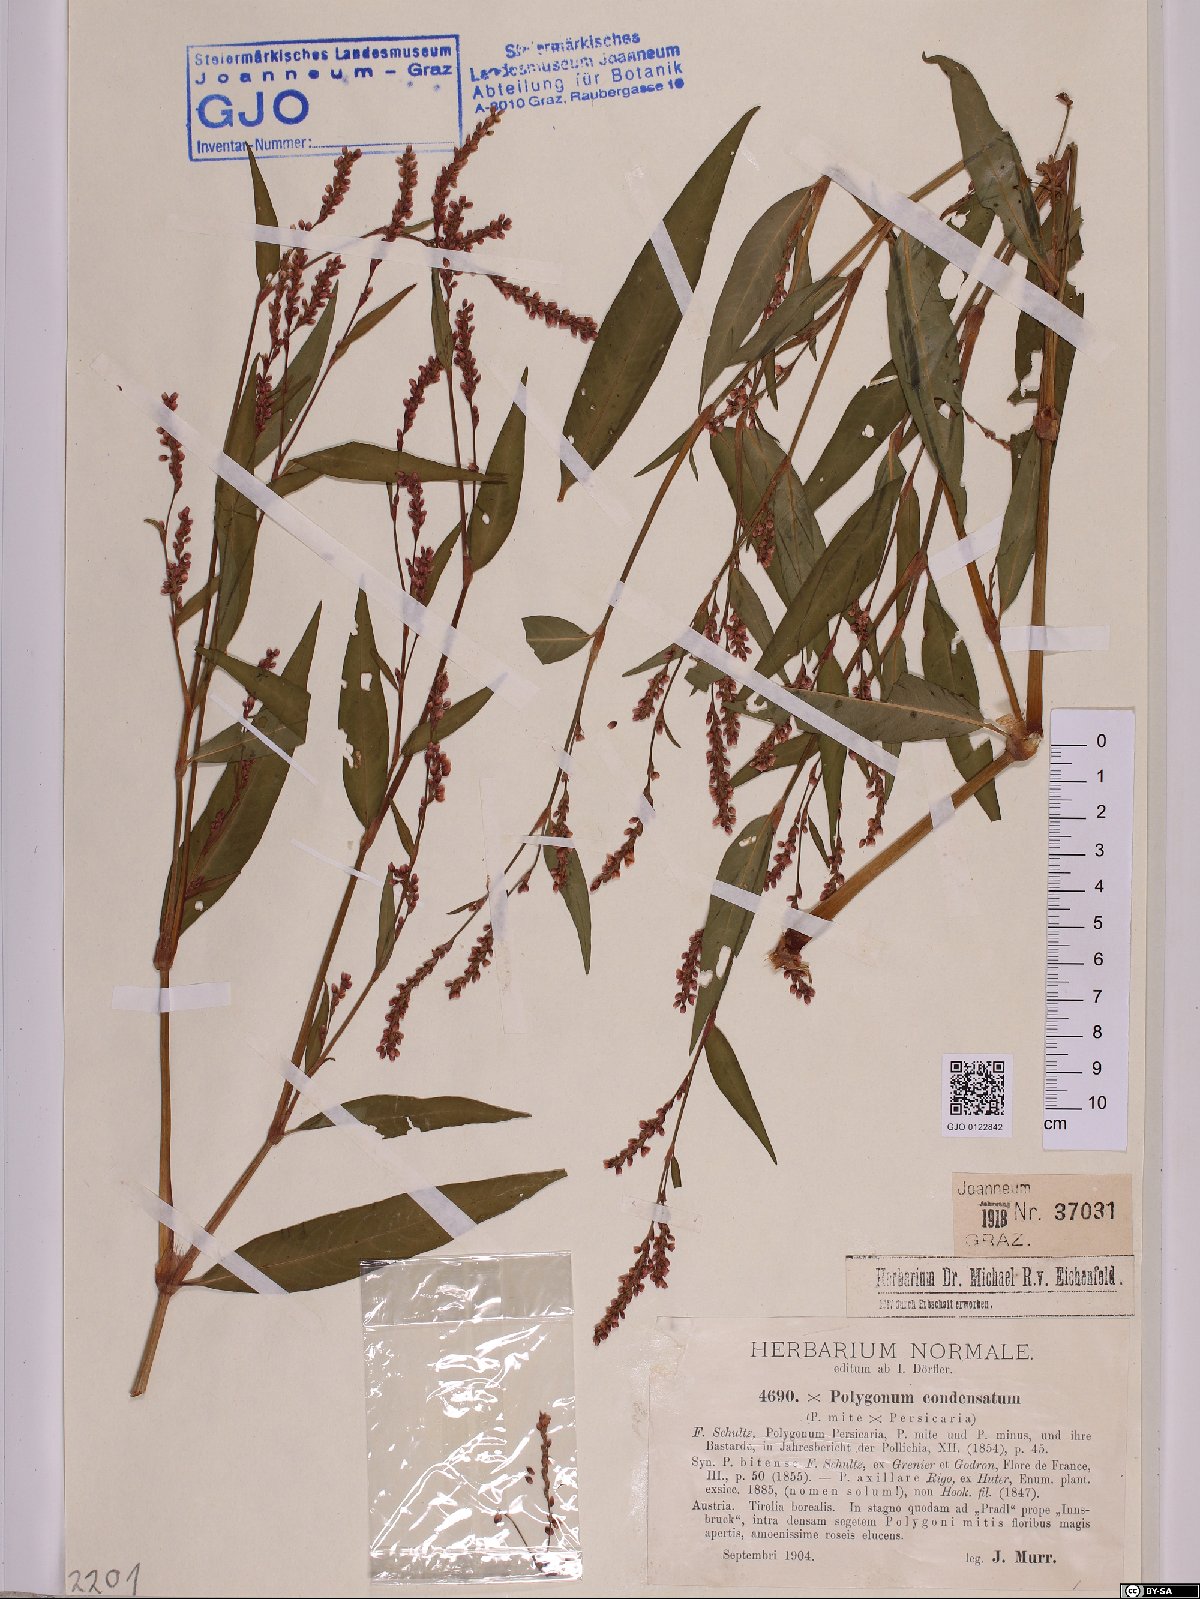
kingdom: Plantae
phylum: Tracheophyta
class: Magnoliopsida
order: Caryophyllales
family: Polygonaceae
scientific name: Polygonaceae
